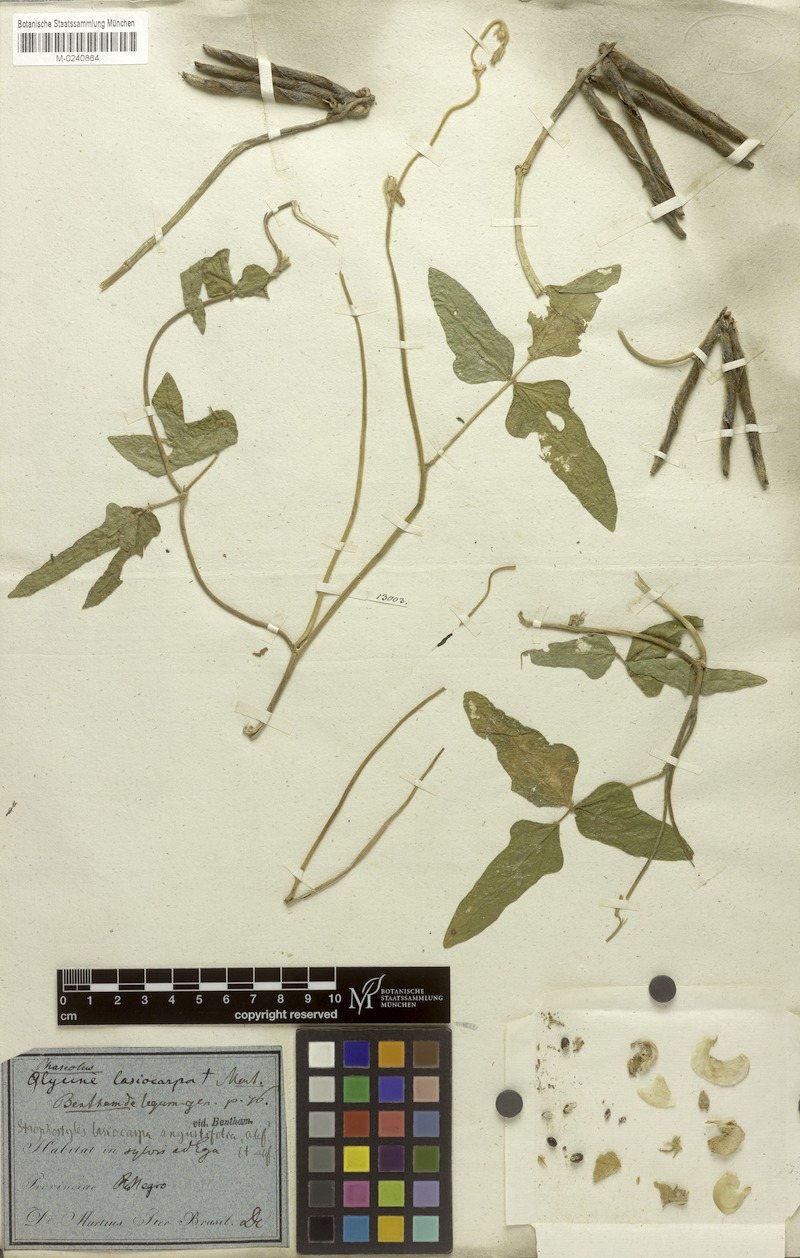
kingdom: Plantae
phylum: Tracheophyta
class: Magnoliopsida
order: Fabales
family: Fabaceae
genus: Vigna
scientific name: Vigna lasiocarpa
